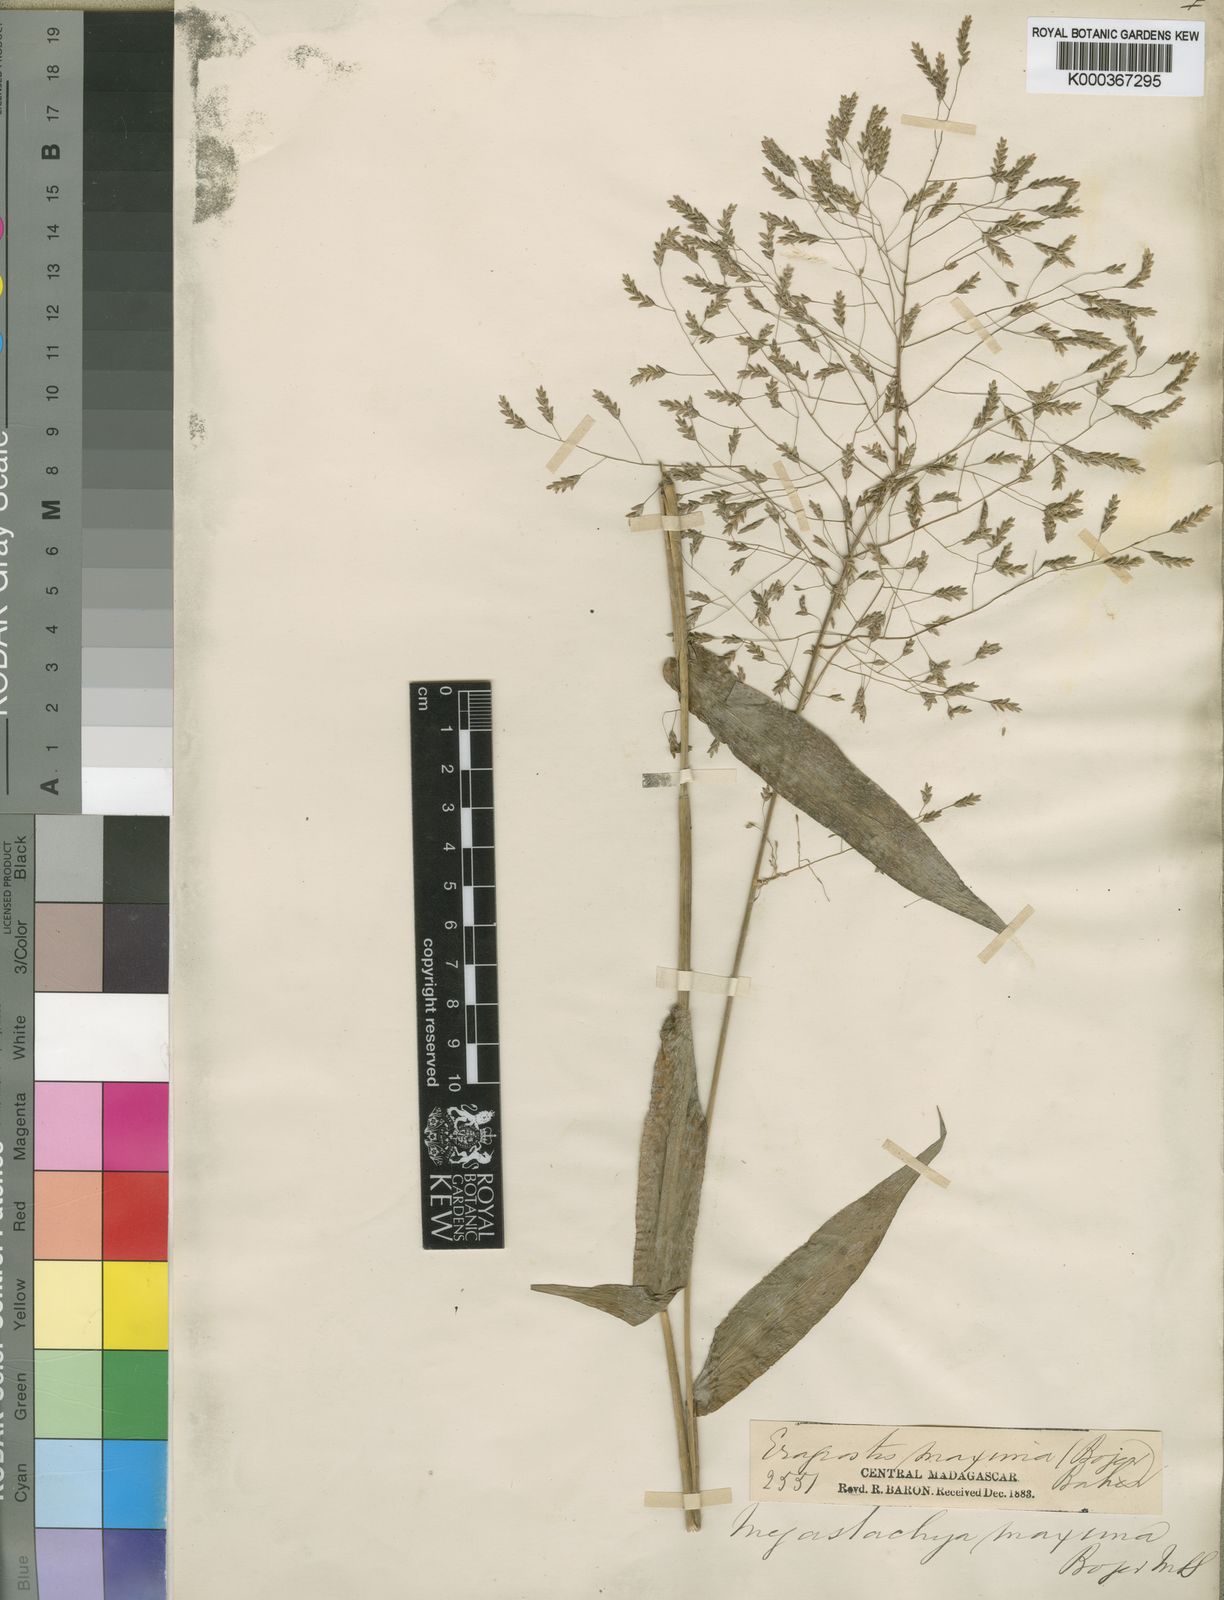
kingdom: Plantae
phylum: Tracheophyta
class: Liliopsida
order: Poales
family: Poaceae
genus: Megastachya
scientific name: Megastachya mucronata
